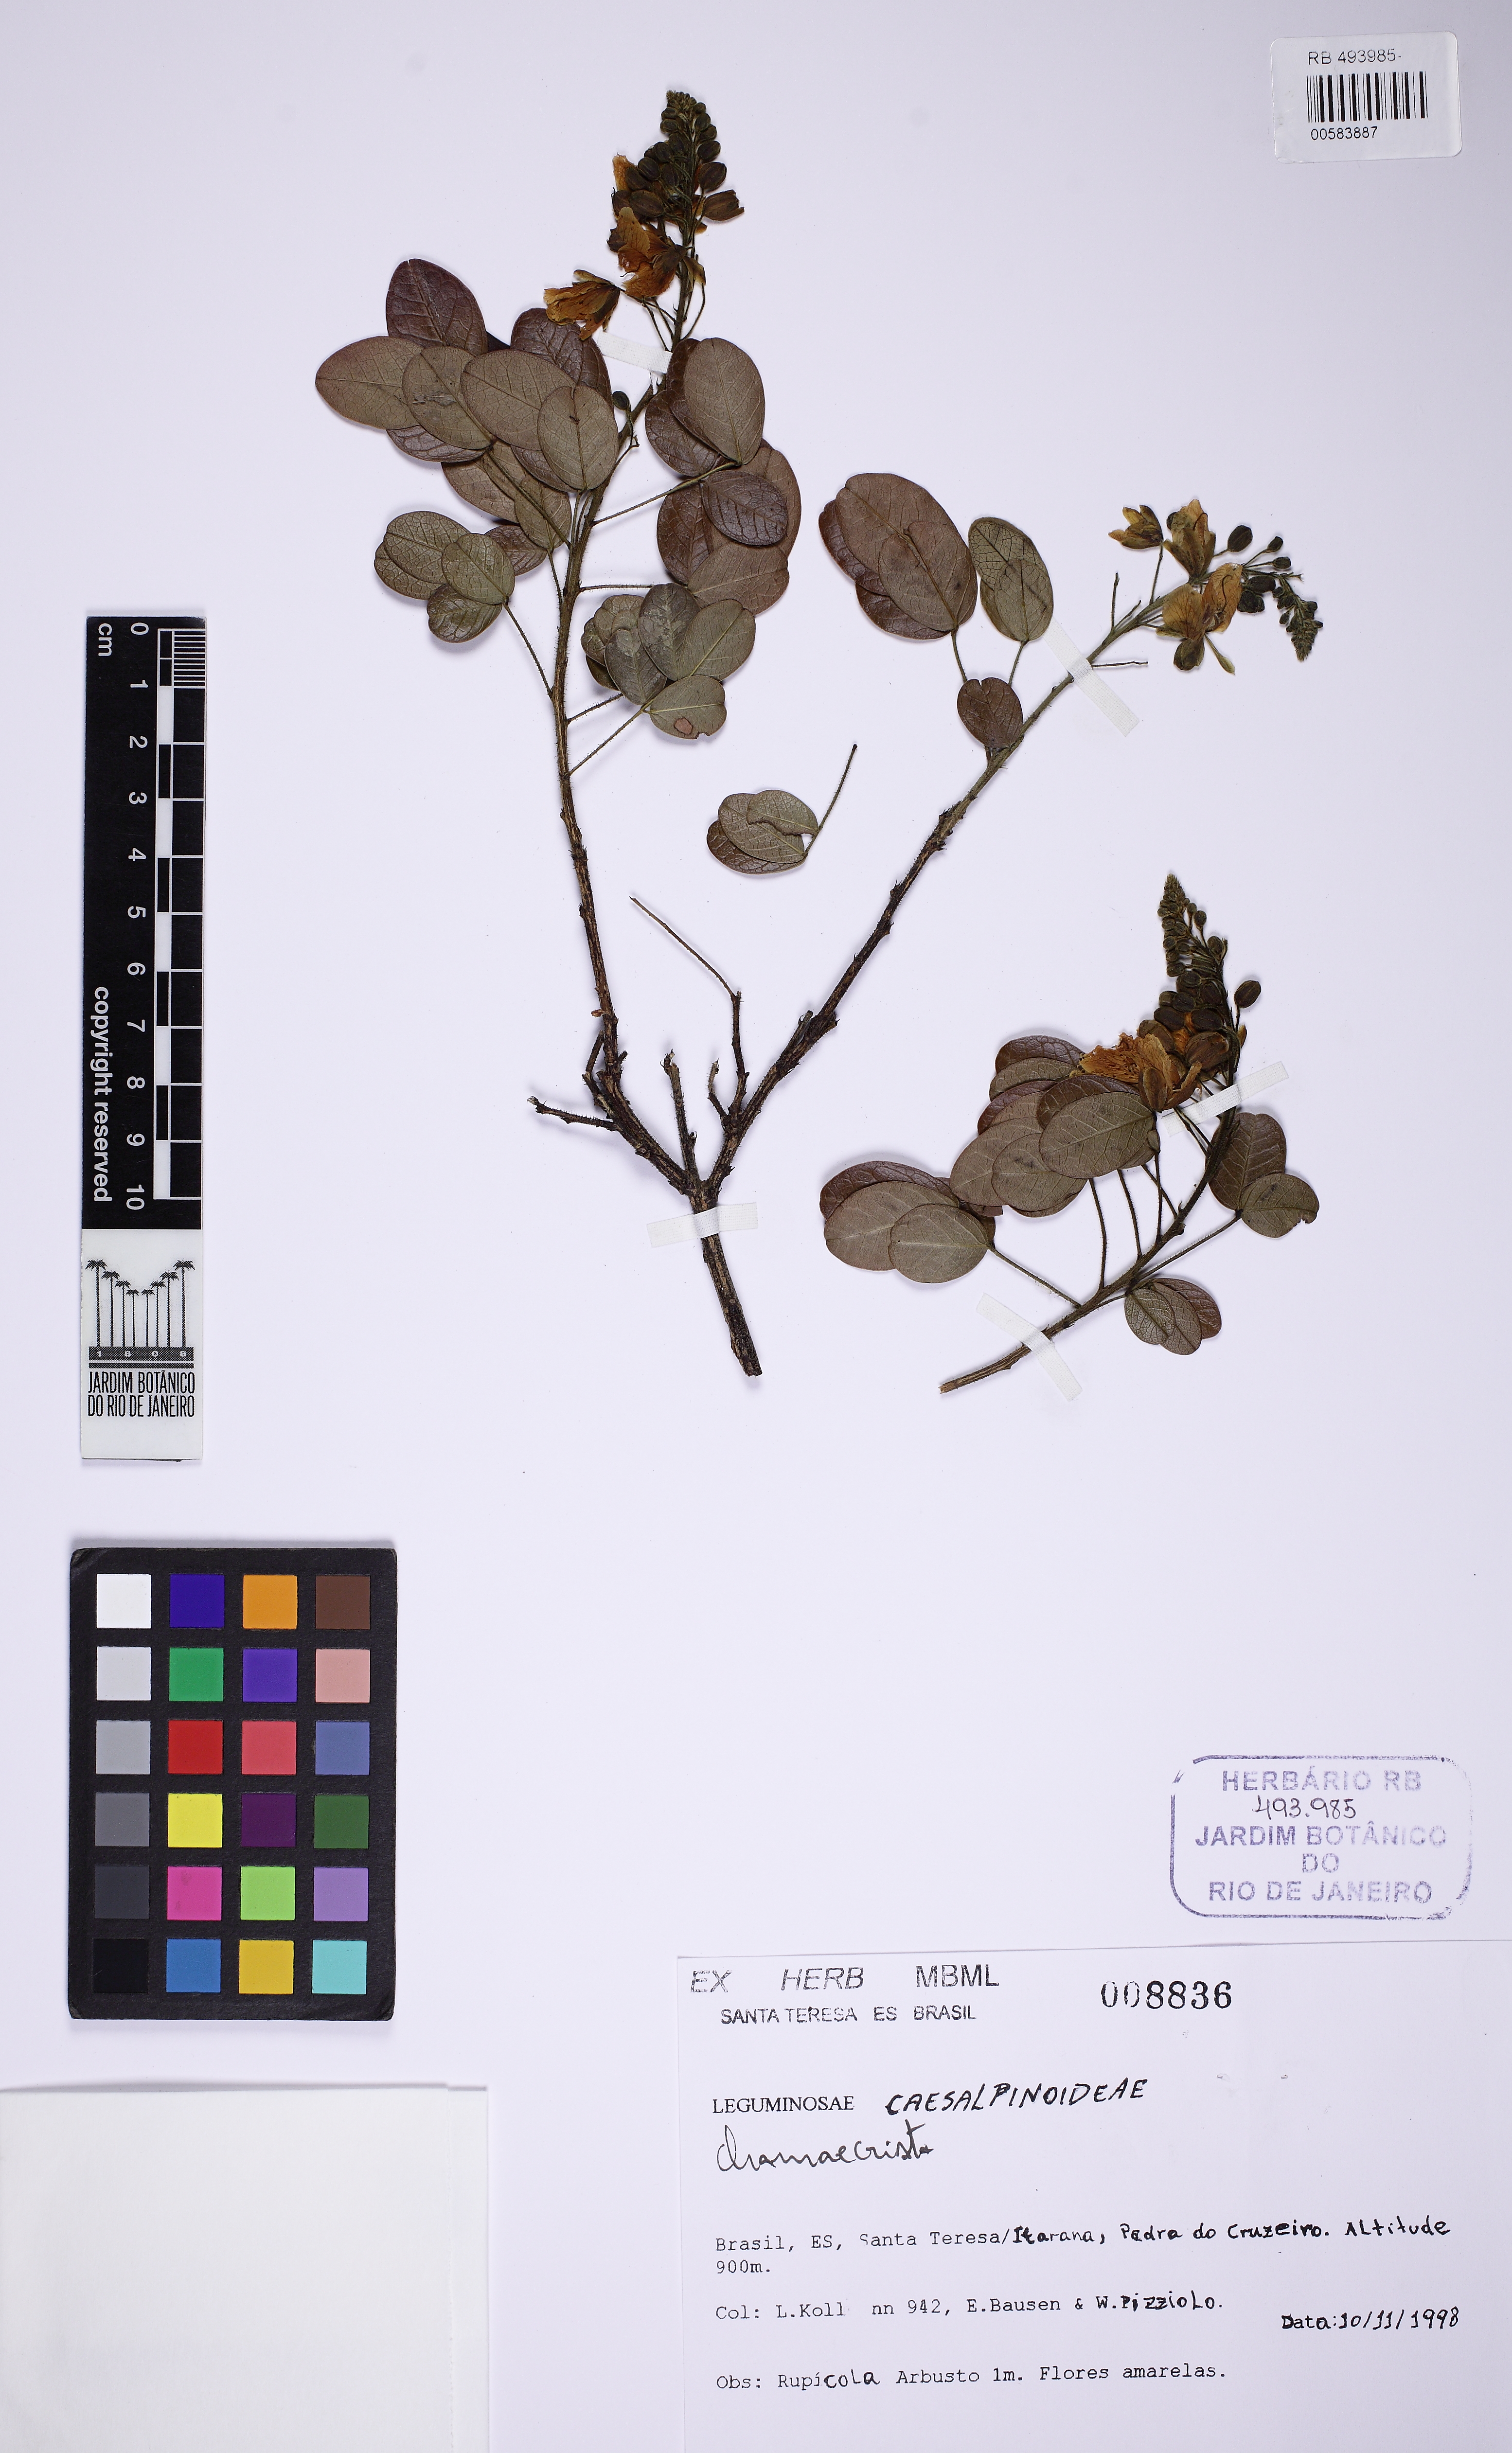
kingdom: Plantae
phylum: Tracheophyta
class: Magnoliopsida
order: Fabales
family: Fabaceae
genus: Chamaecrista
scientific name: Chamaecrista
